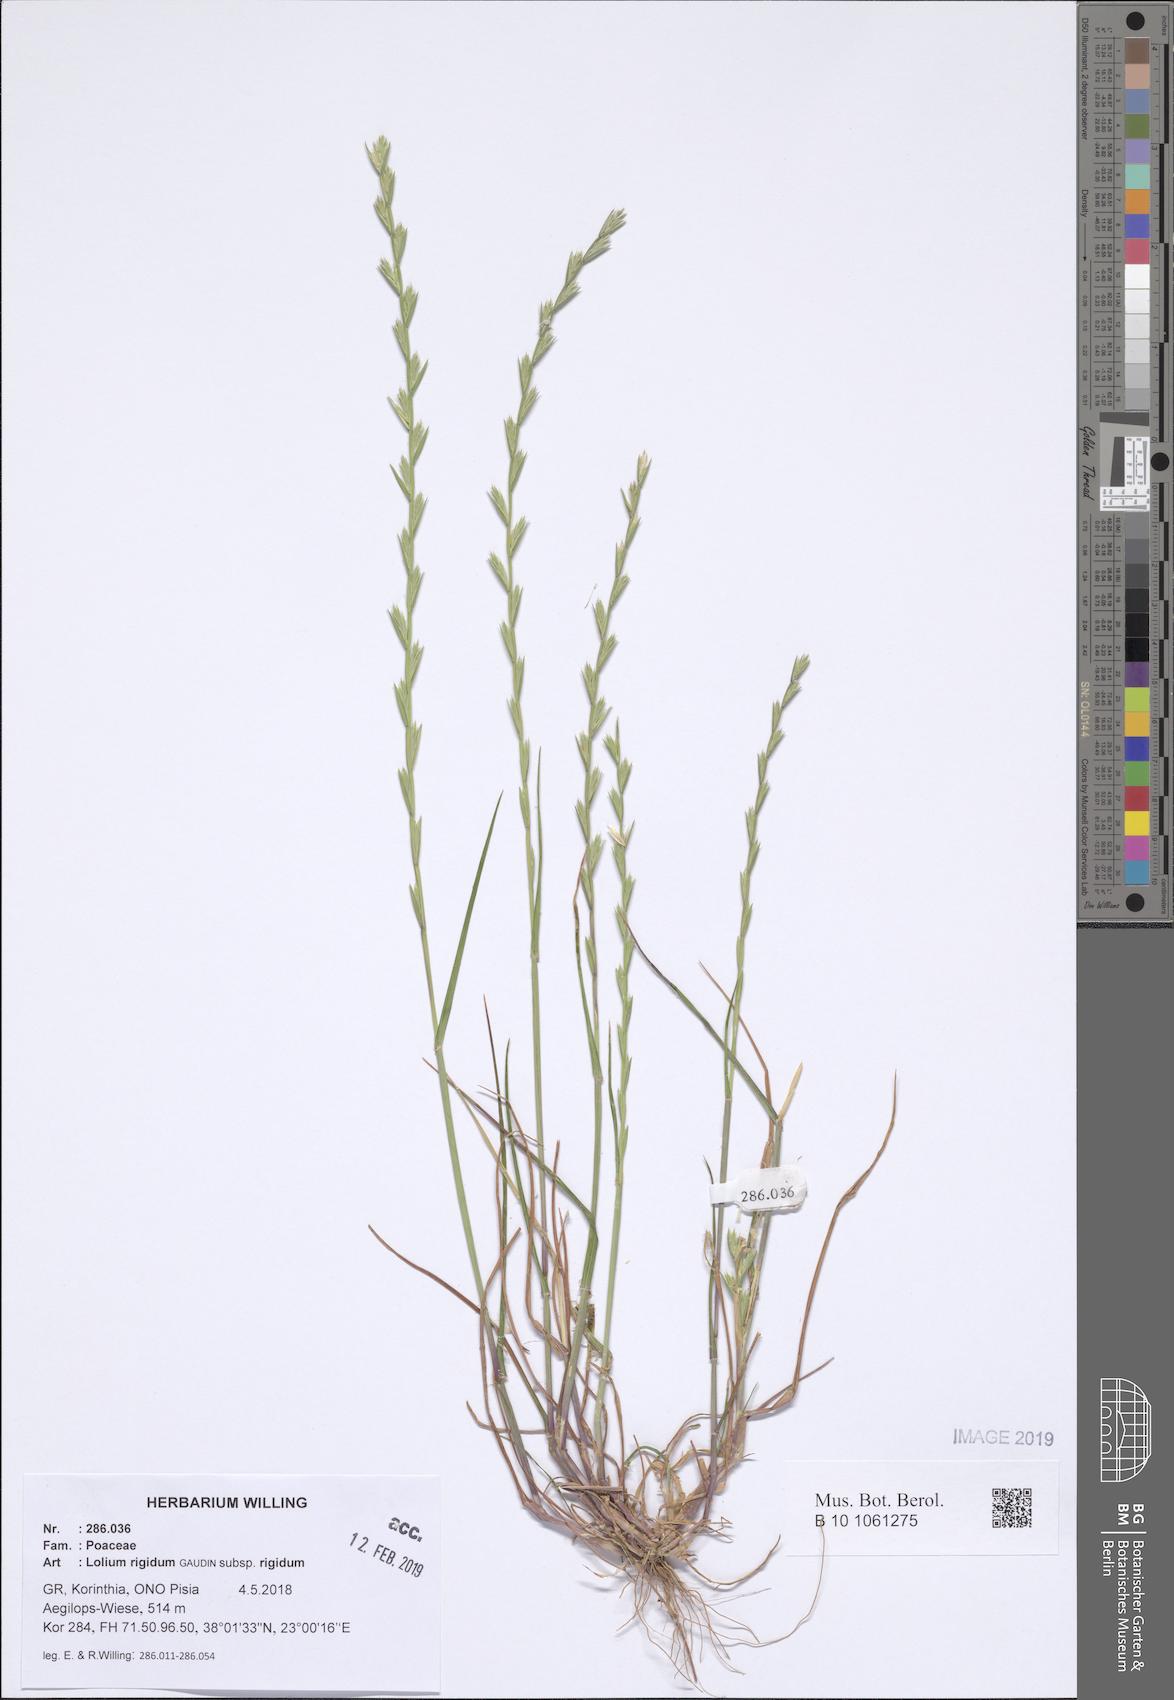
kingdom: Plantae
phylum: Tracheophyta
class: Liliopsida
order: Poales
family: Poaceae
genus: Lolium
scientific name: Lolium rigidum
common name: Wimmera ryegrass
